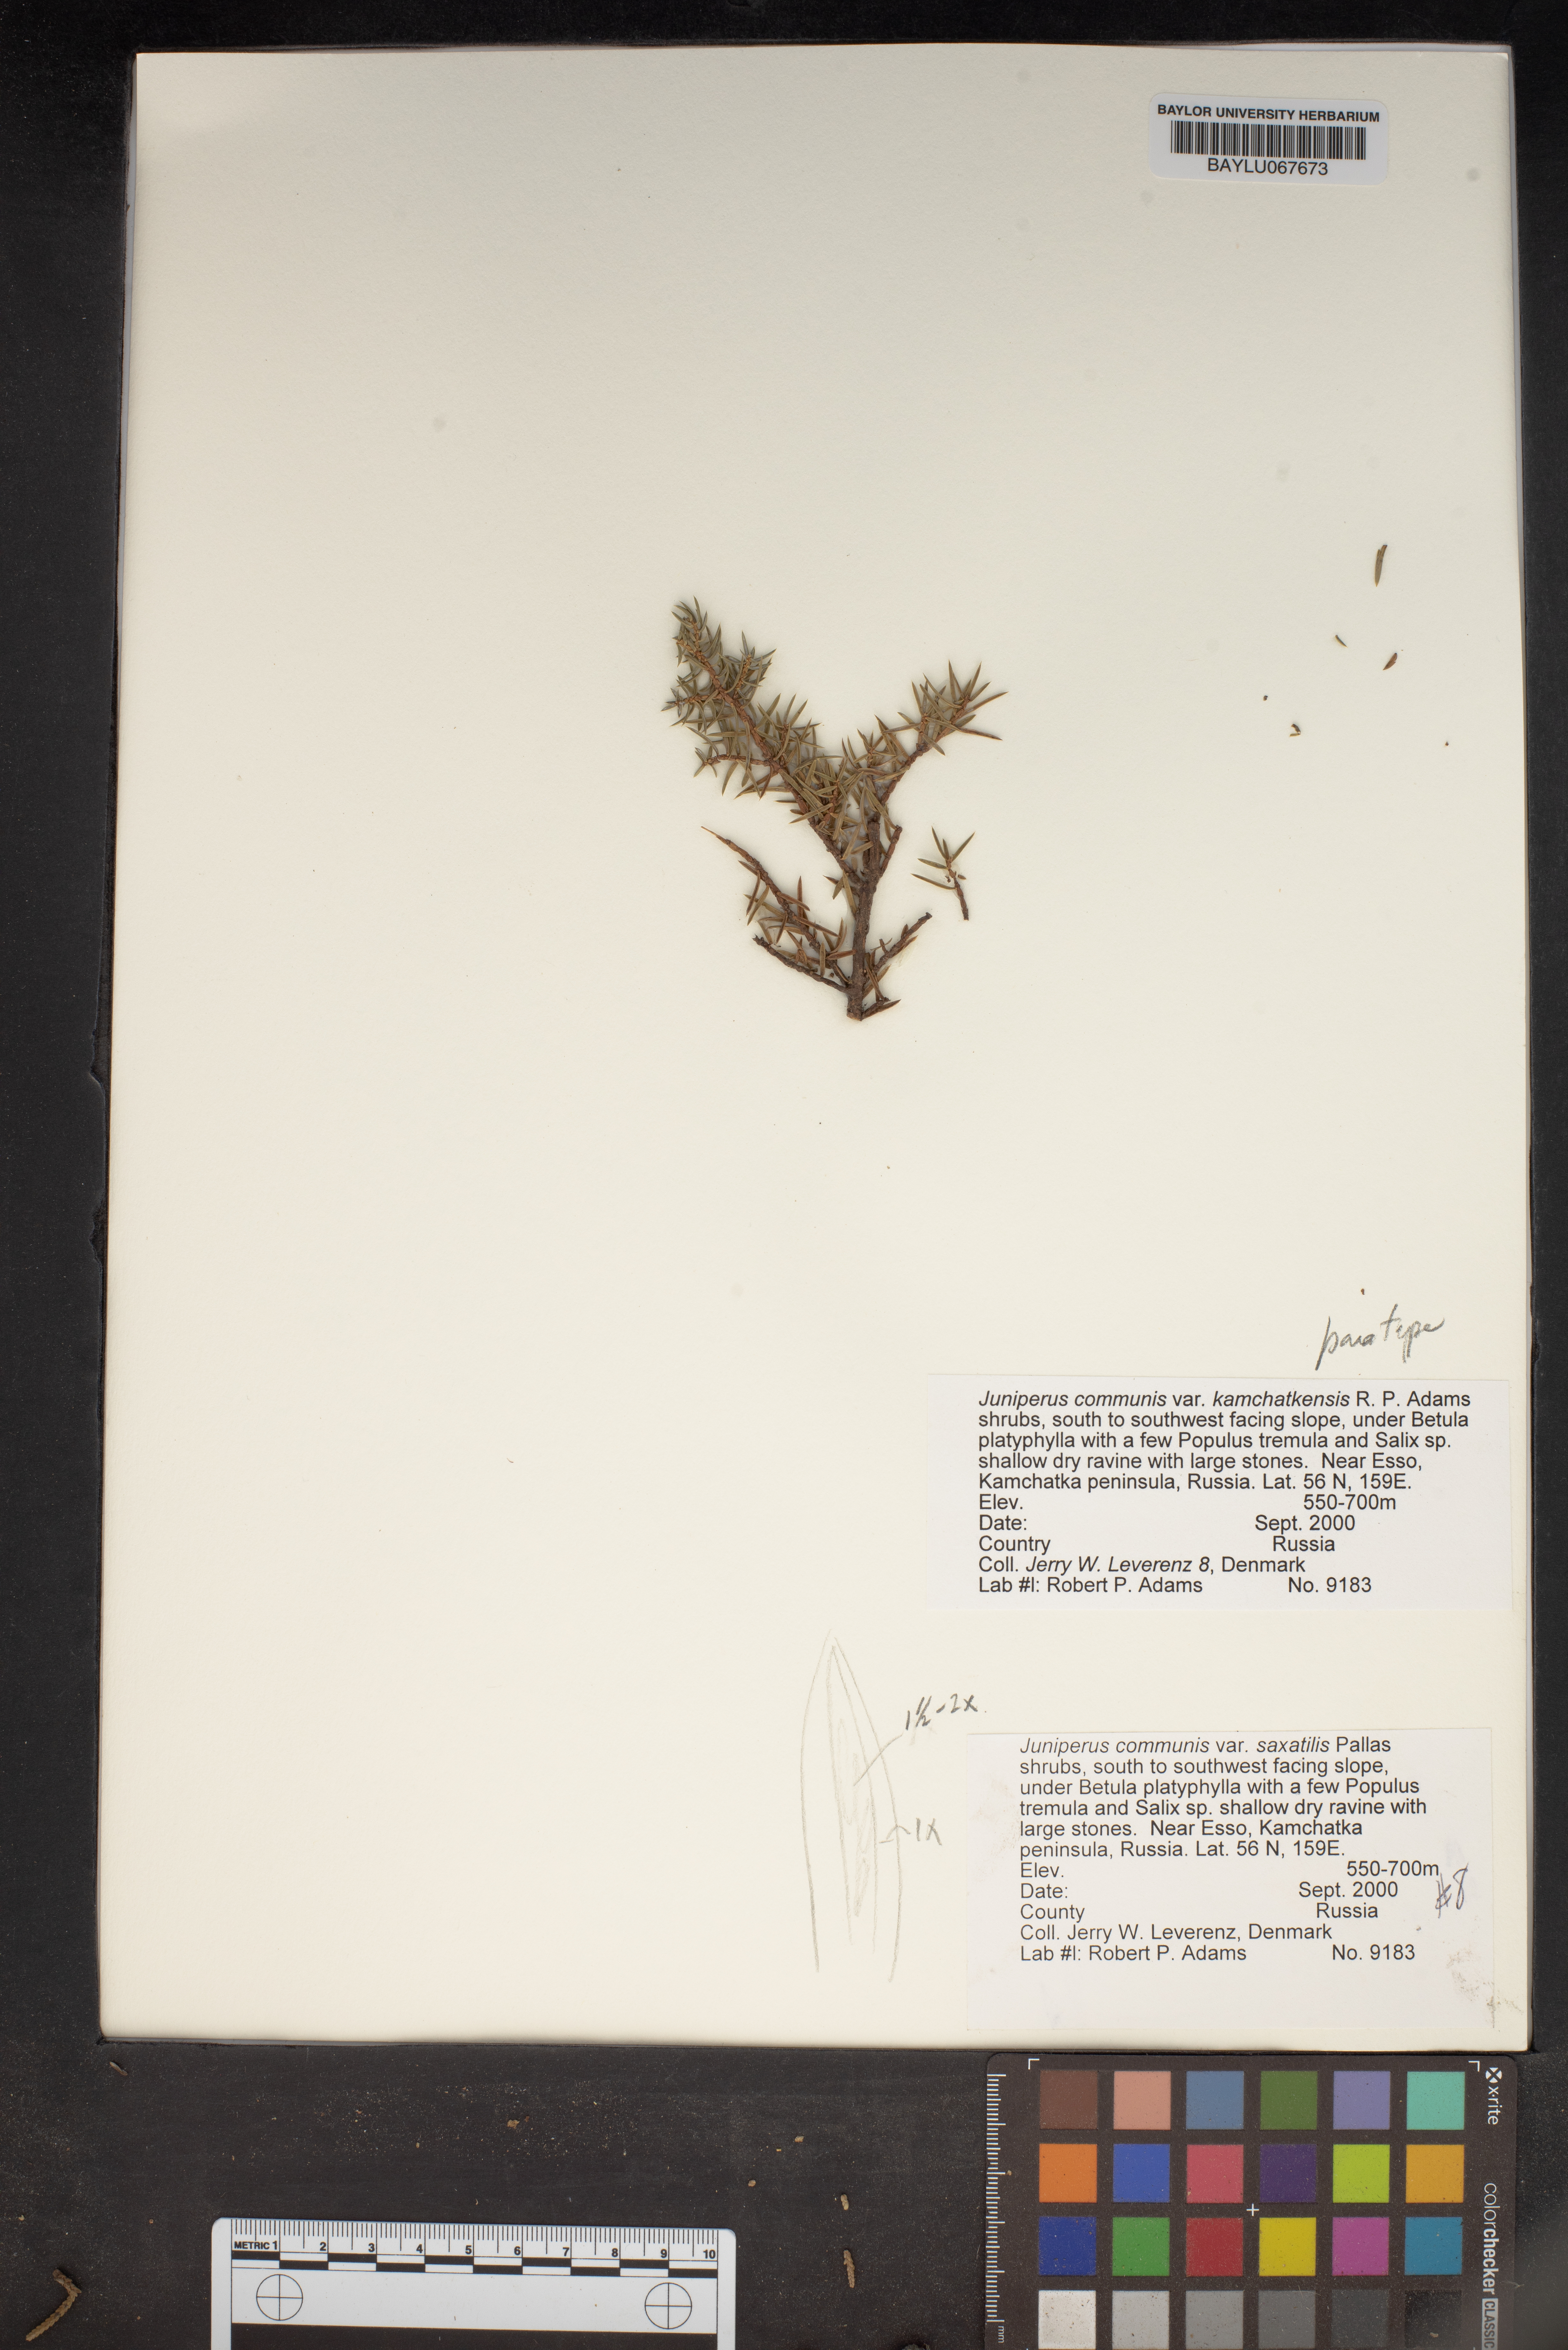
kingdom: Plantae
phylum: Tracheophyta
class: Pinopsida
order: Pinales
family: Cupressaceae
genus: Juniperus
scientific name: Juniperus communis
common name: Common juniper
